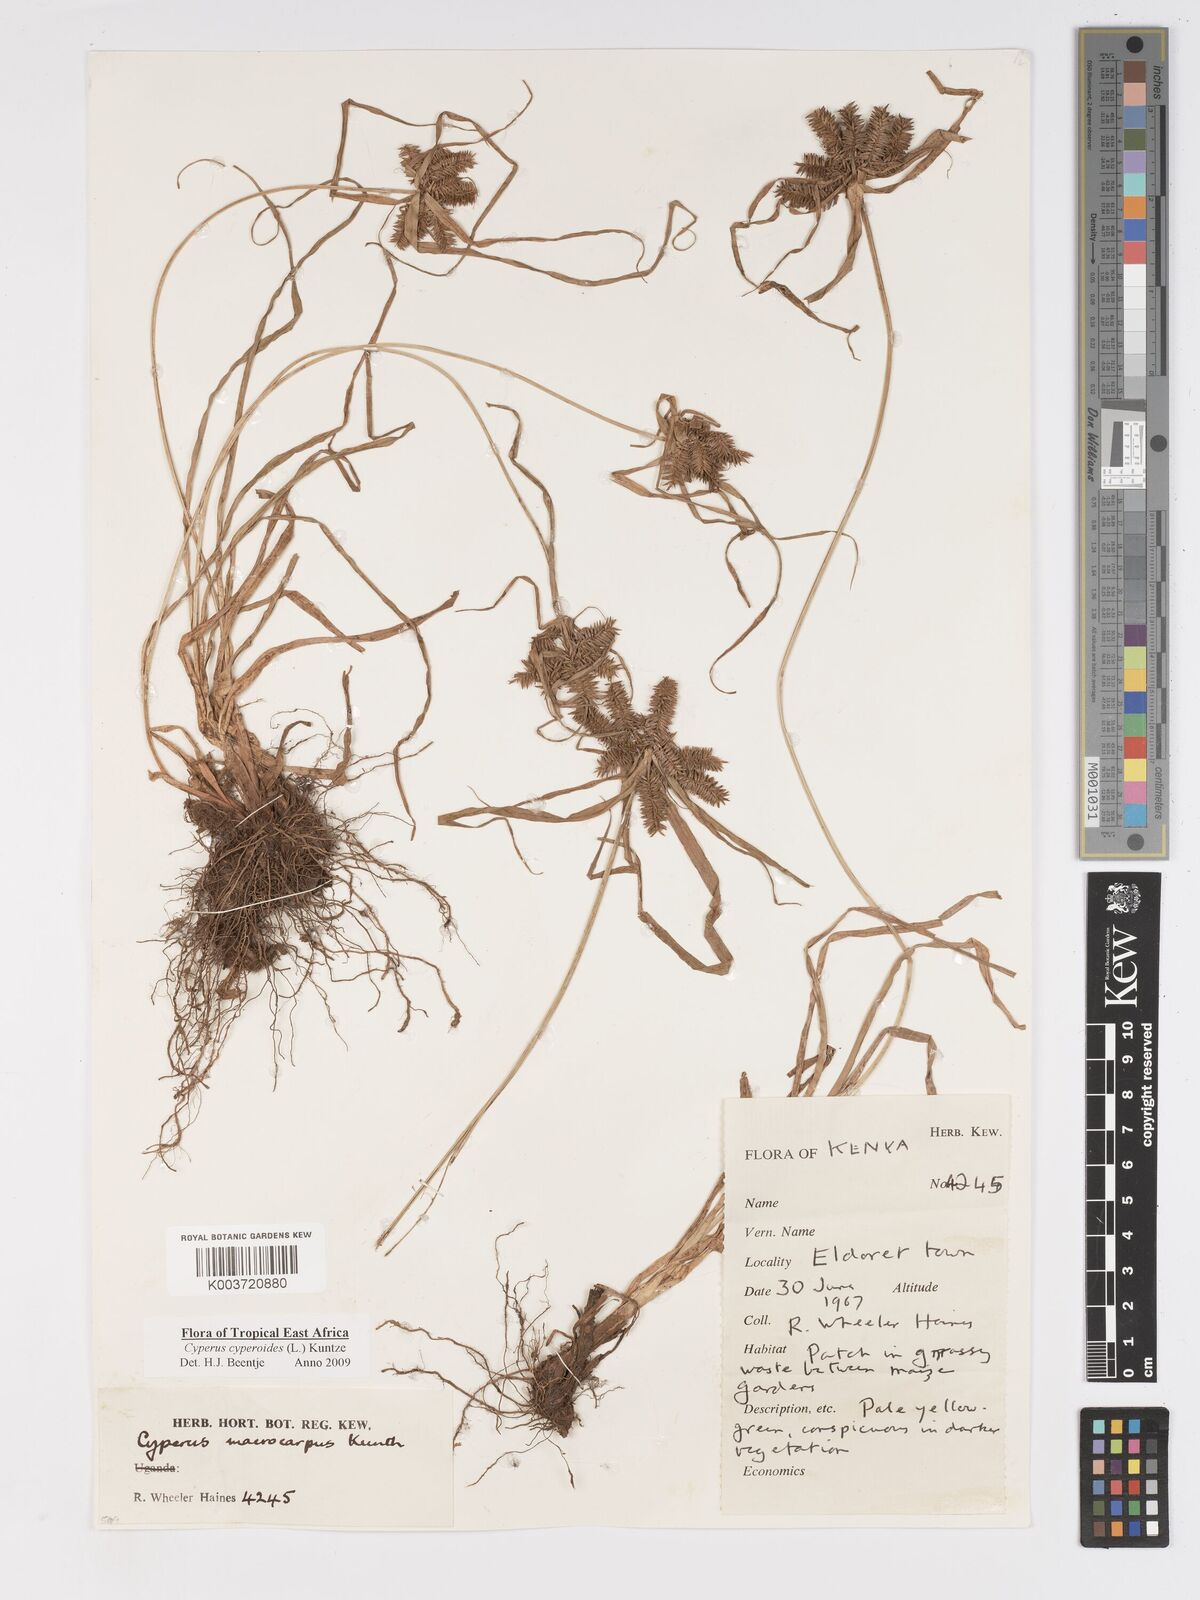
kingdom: Plantae
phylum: Tracheophyta
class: Liliopsida
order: Poales
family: Cyperaceae
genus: Cyperus
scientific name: Cyperus macrocarpus
